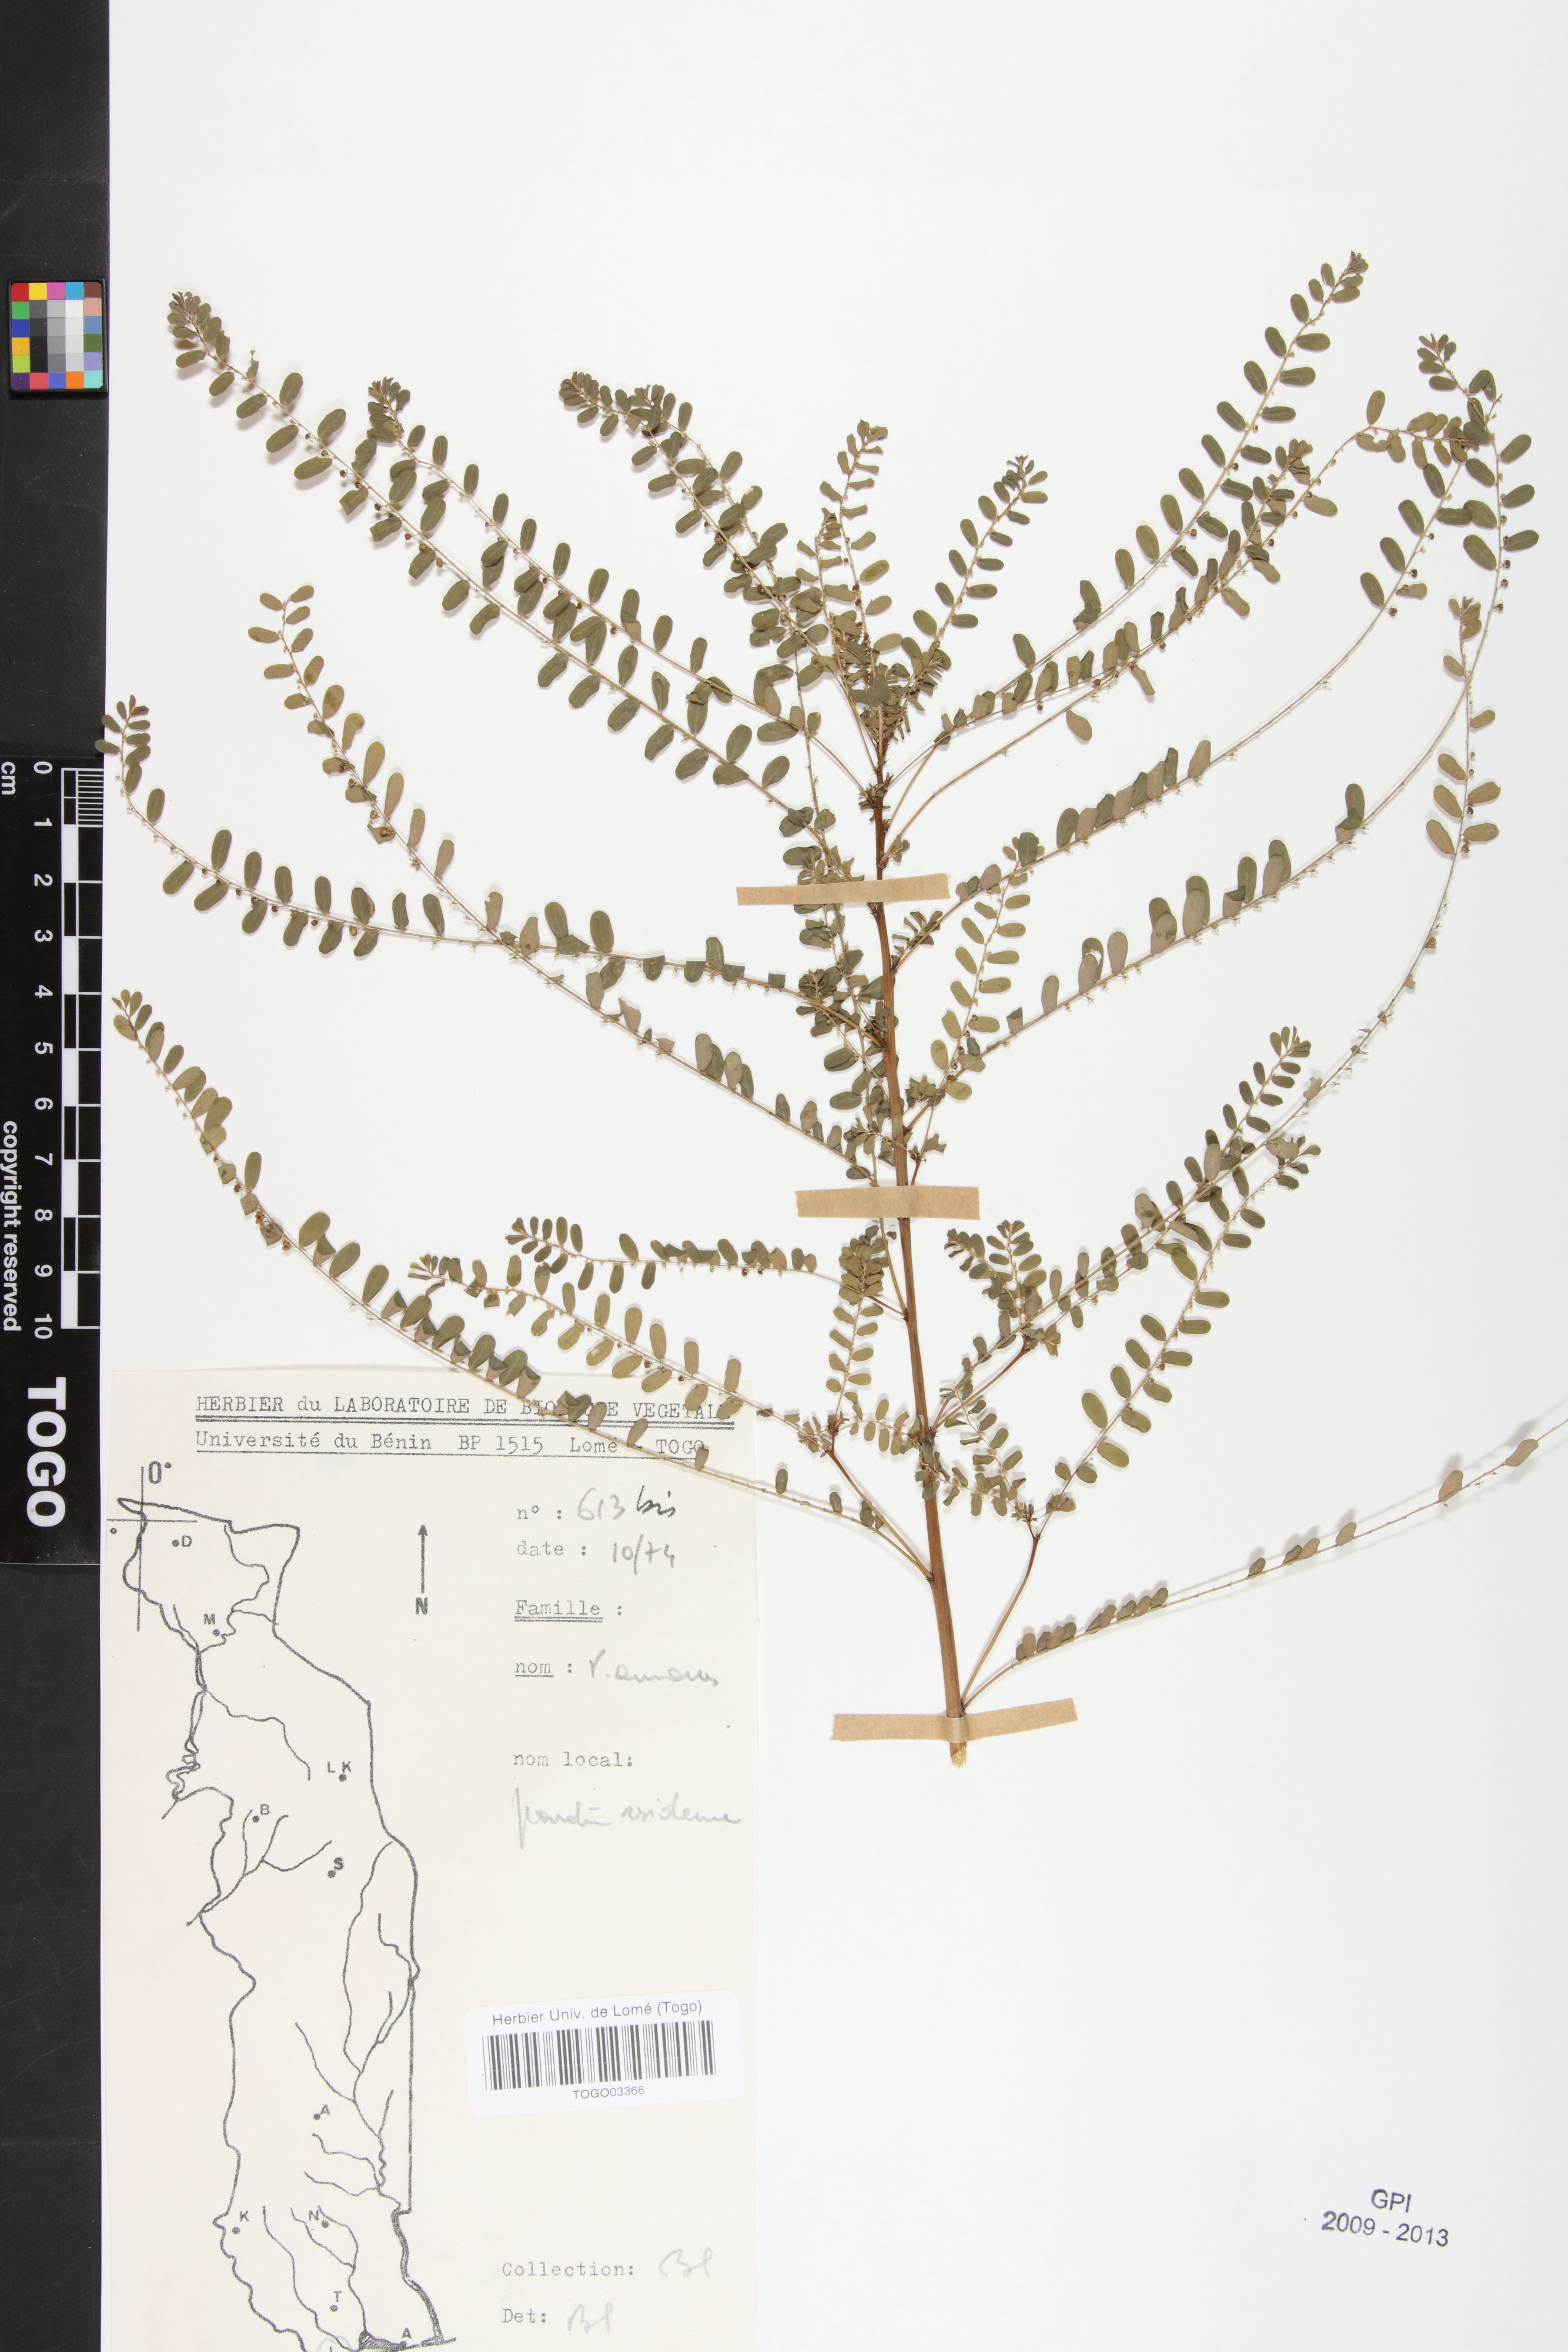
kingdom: Plantae
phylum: Tracheophyta
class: Magnoliopsida
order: Malpighiales
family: Phyllanthaceae
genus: Phyllanthus
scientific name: Phyllanthus amarus
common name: Carry me seed
